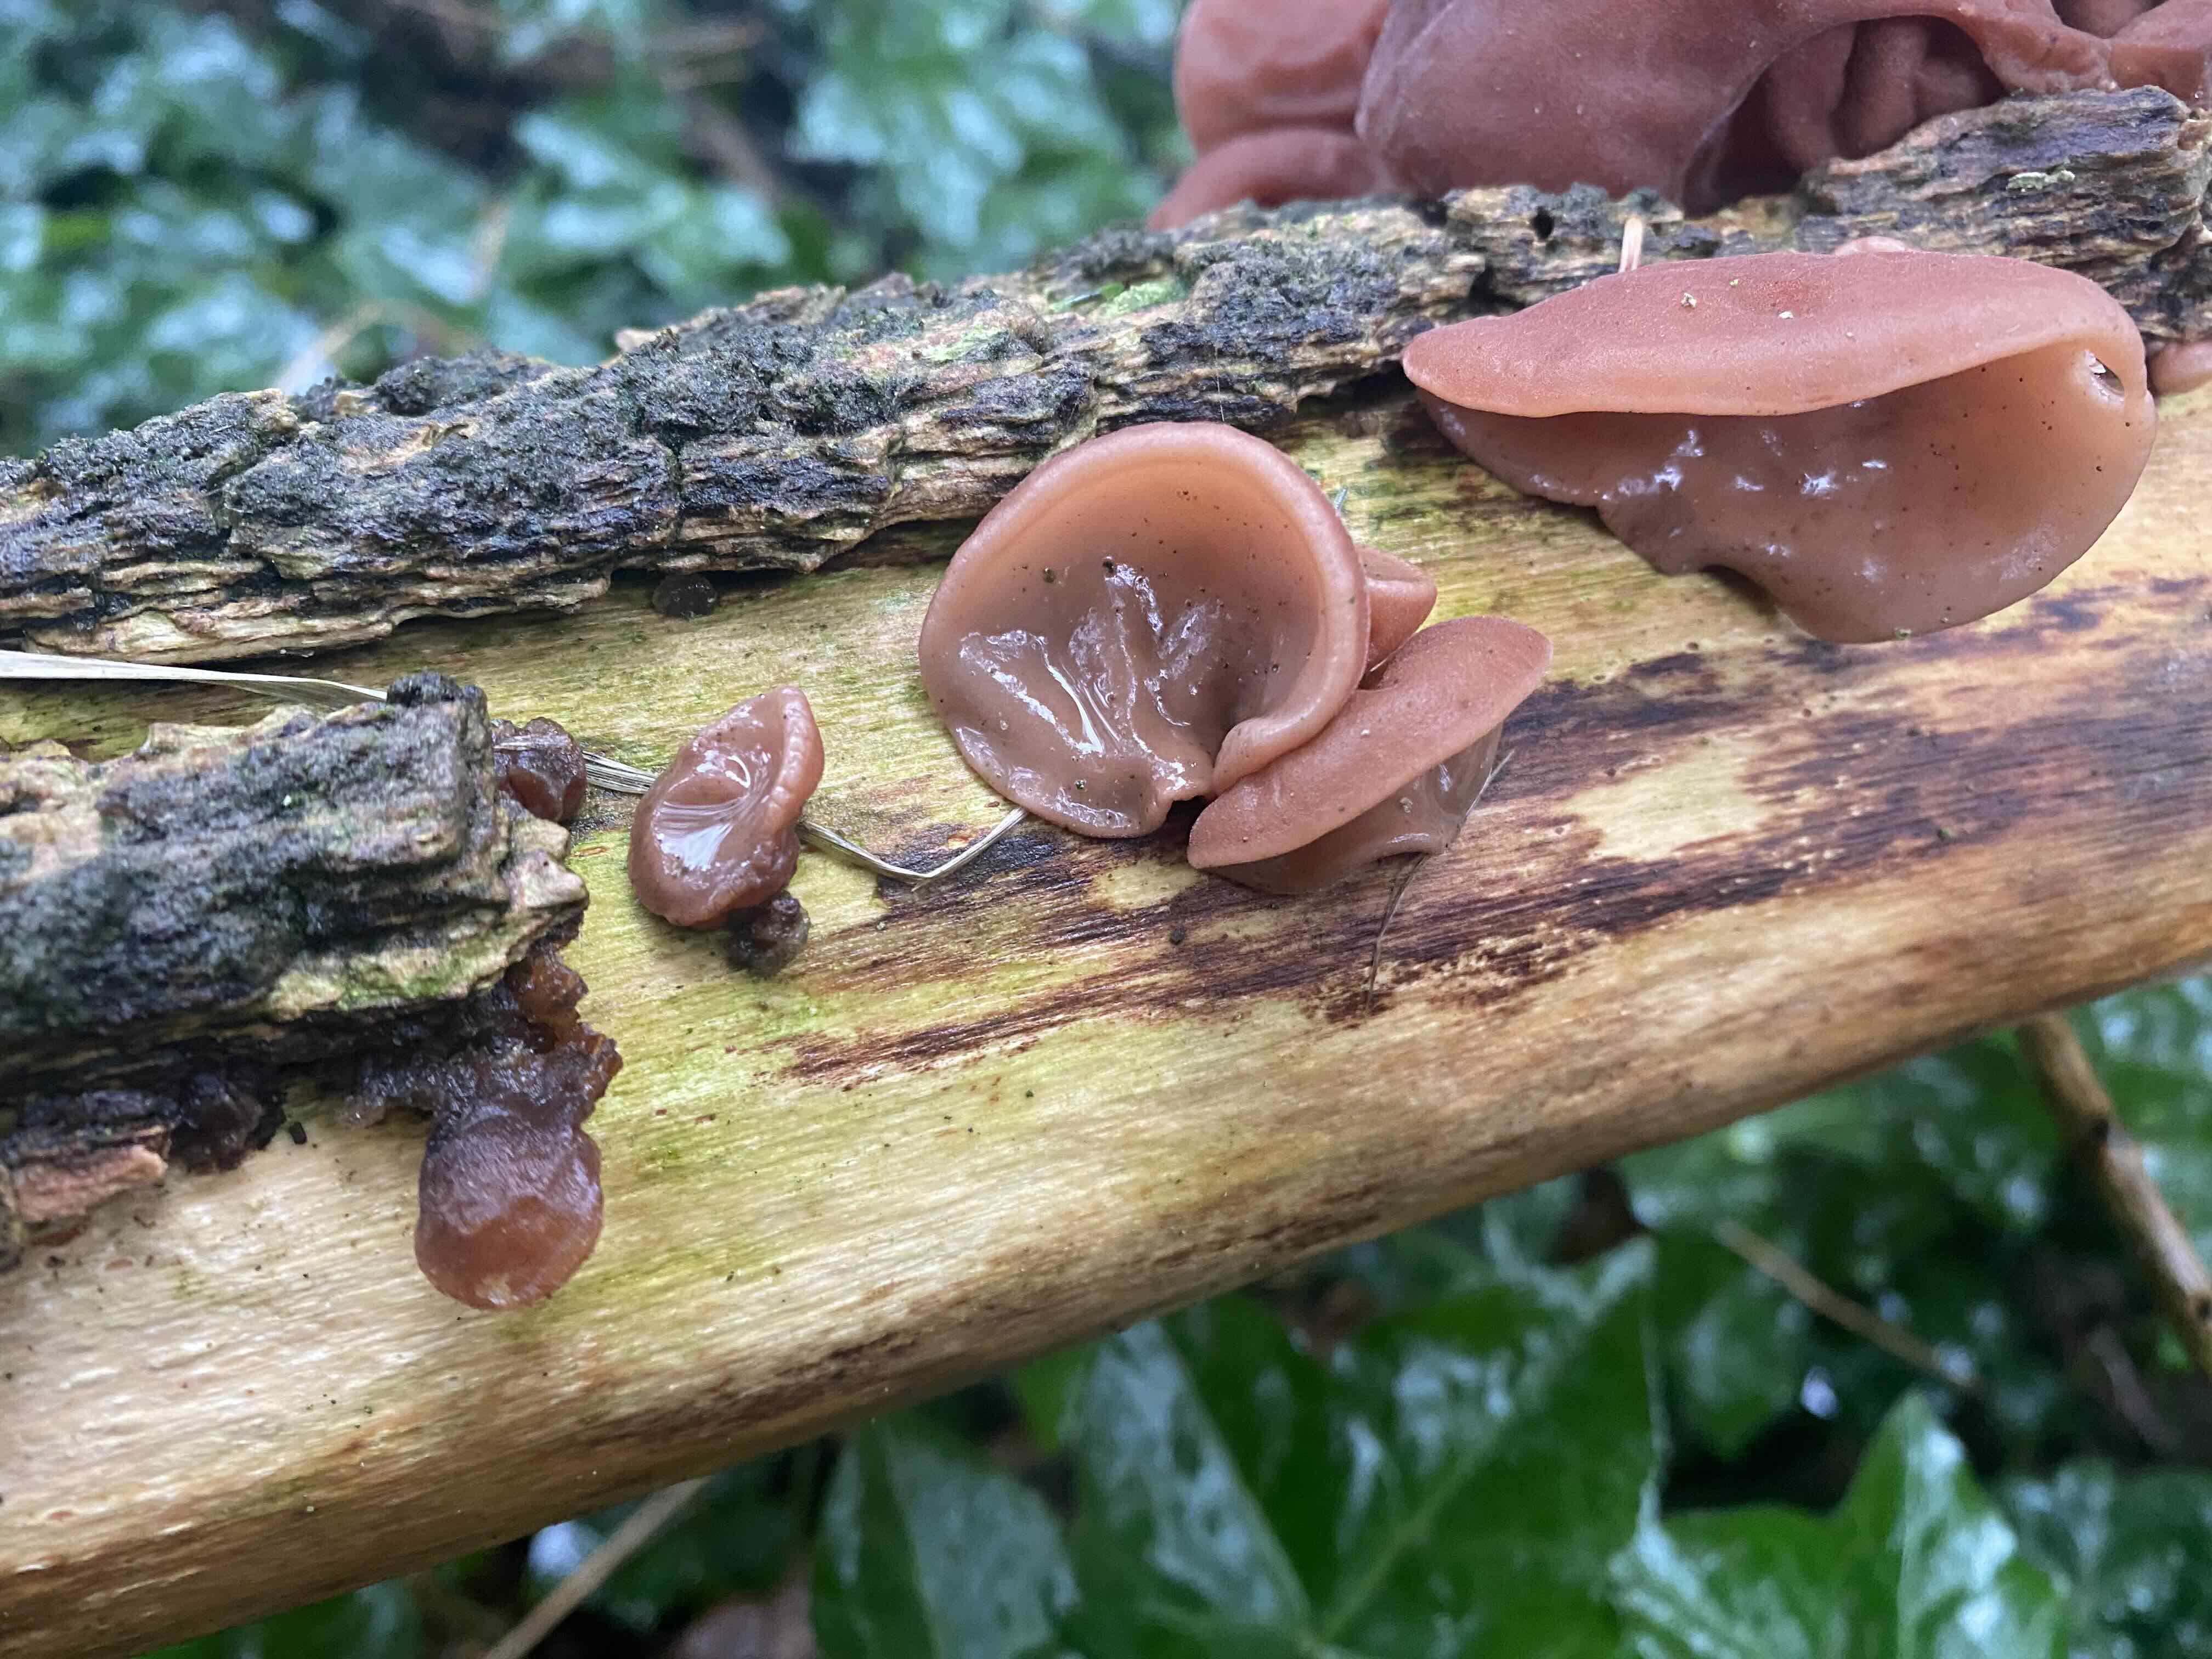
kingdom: Fungi
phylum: Basidiomycota
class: Agaricomycetes
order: Auriculariales
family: Auriculariaceae
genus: Auricularia
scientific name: Auricularia auricula-judae
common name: almindelig judasøre
